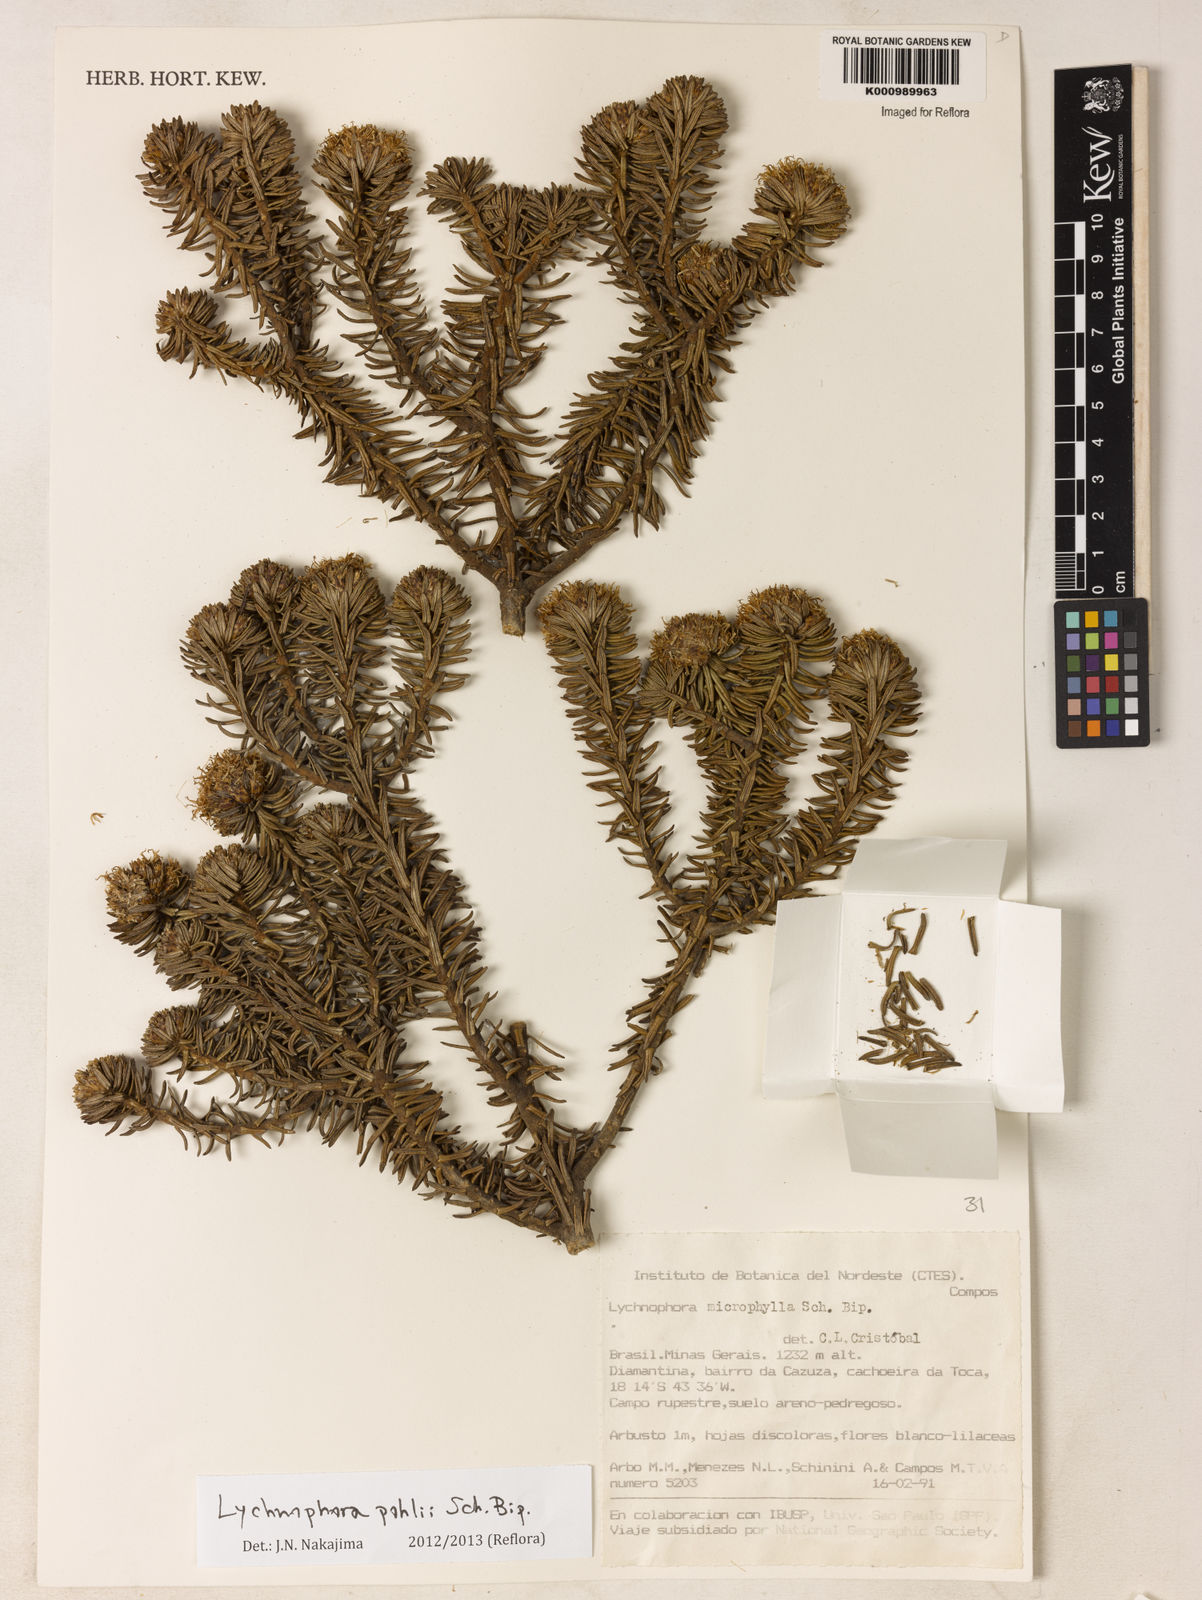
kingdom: Plantae
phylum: Tracheophyta
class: Magnoliopsida
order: Asterales
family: Asteraceae
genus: Lychnophora
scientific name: Lychnophora pohlii
